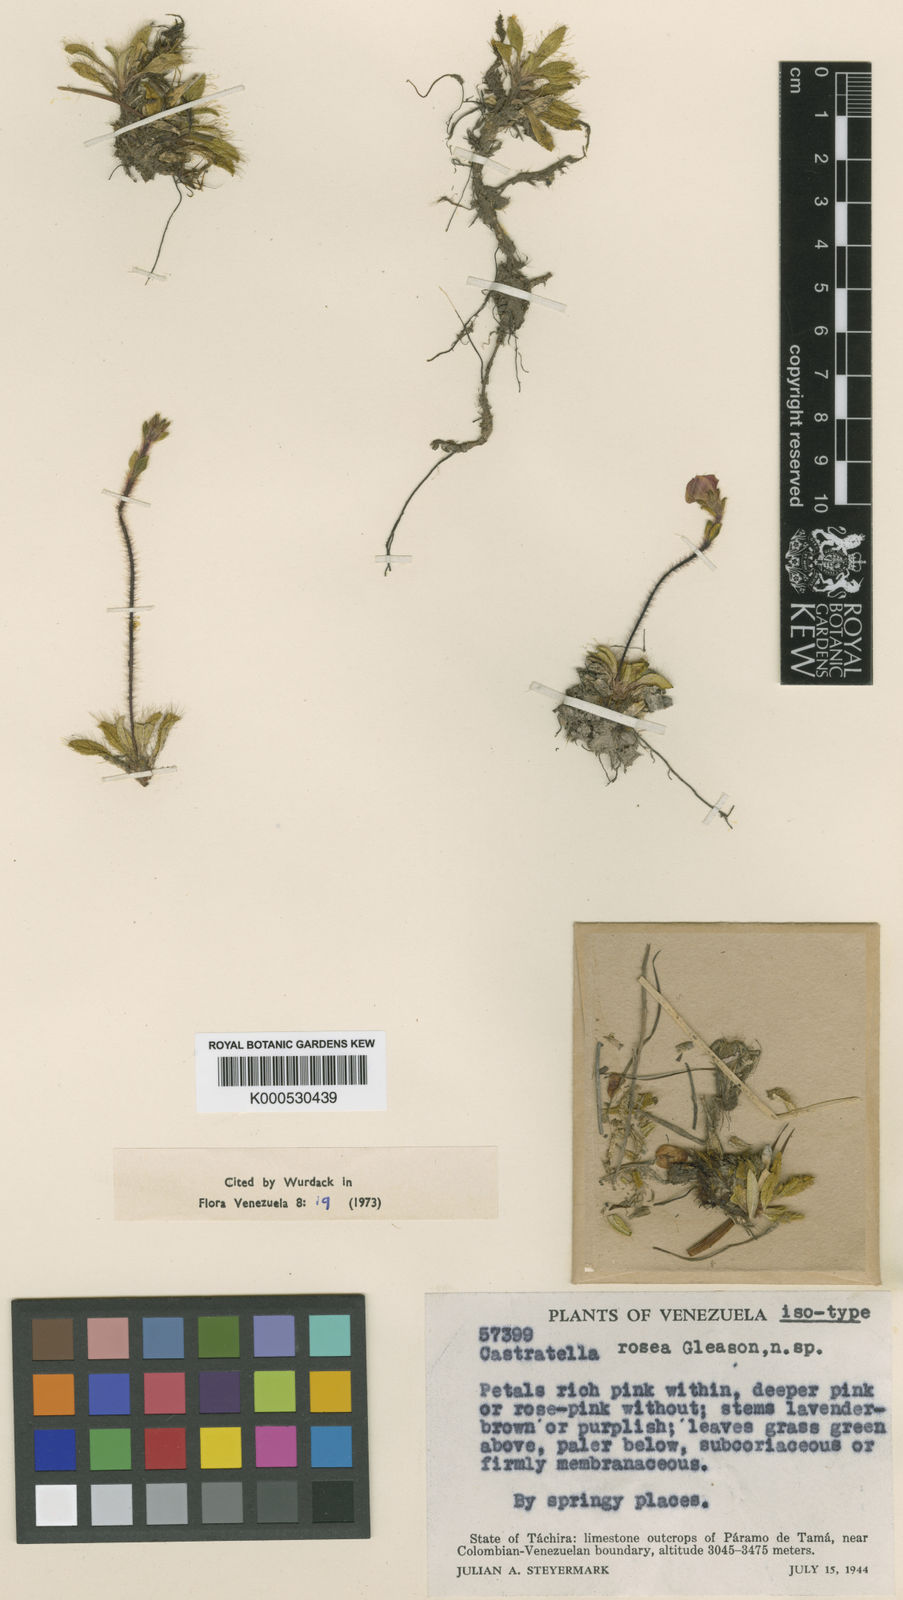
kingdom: Plantae
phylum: Tracheophyta
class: Magnoliopsida
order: Myrtales
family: Melastomataceae
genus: Castratella
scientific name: Castratella rosea
